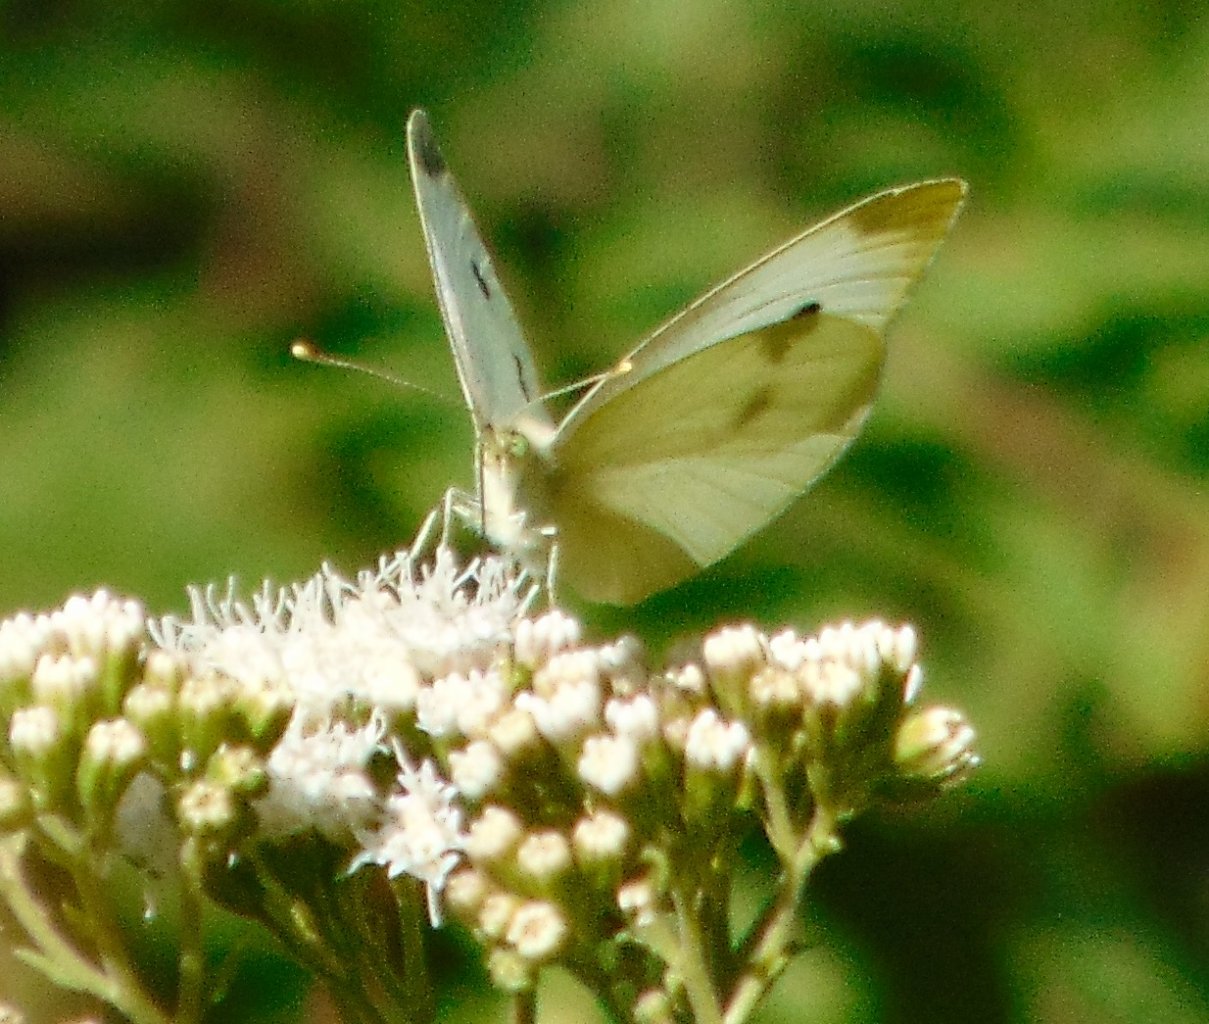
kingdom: Animalia
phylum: Arthropoda
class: Insecta
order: Lepidoptera
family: Pieridae
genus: Pieris
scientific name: Pieris rapae
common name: Cabbage White
